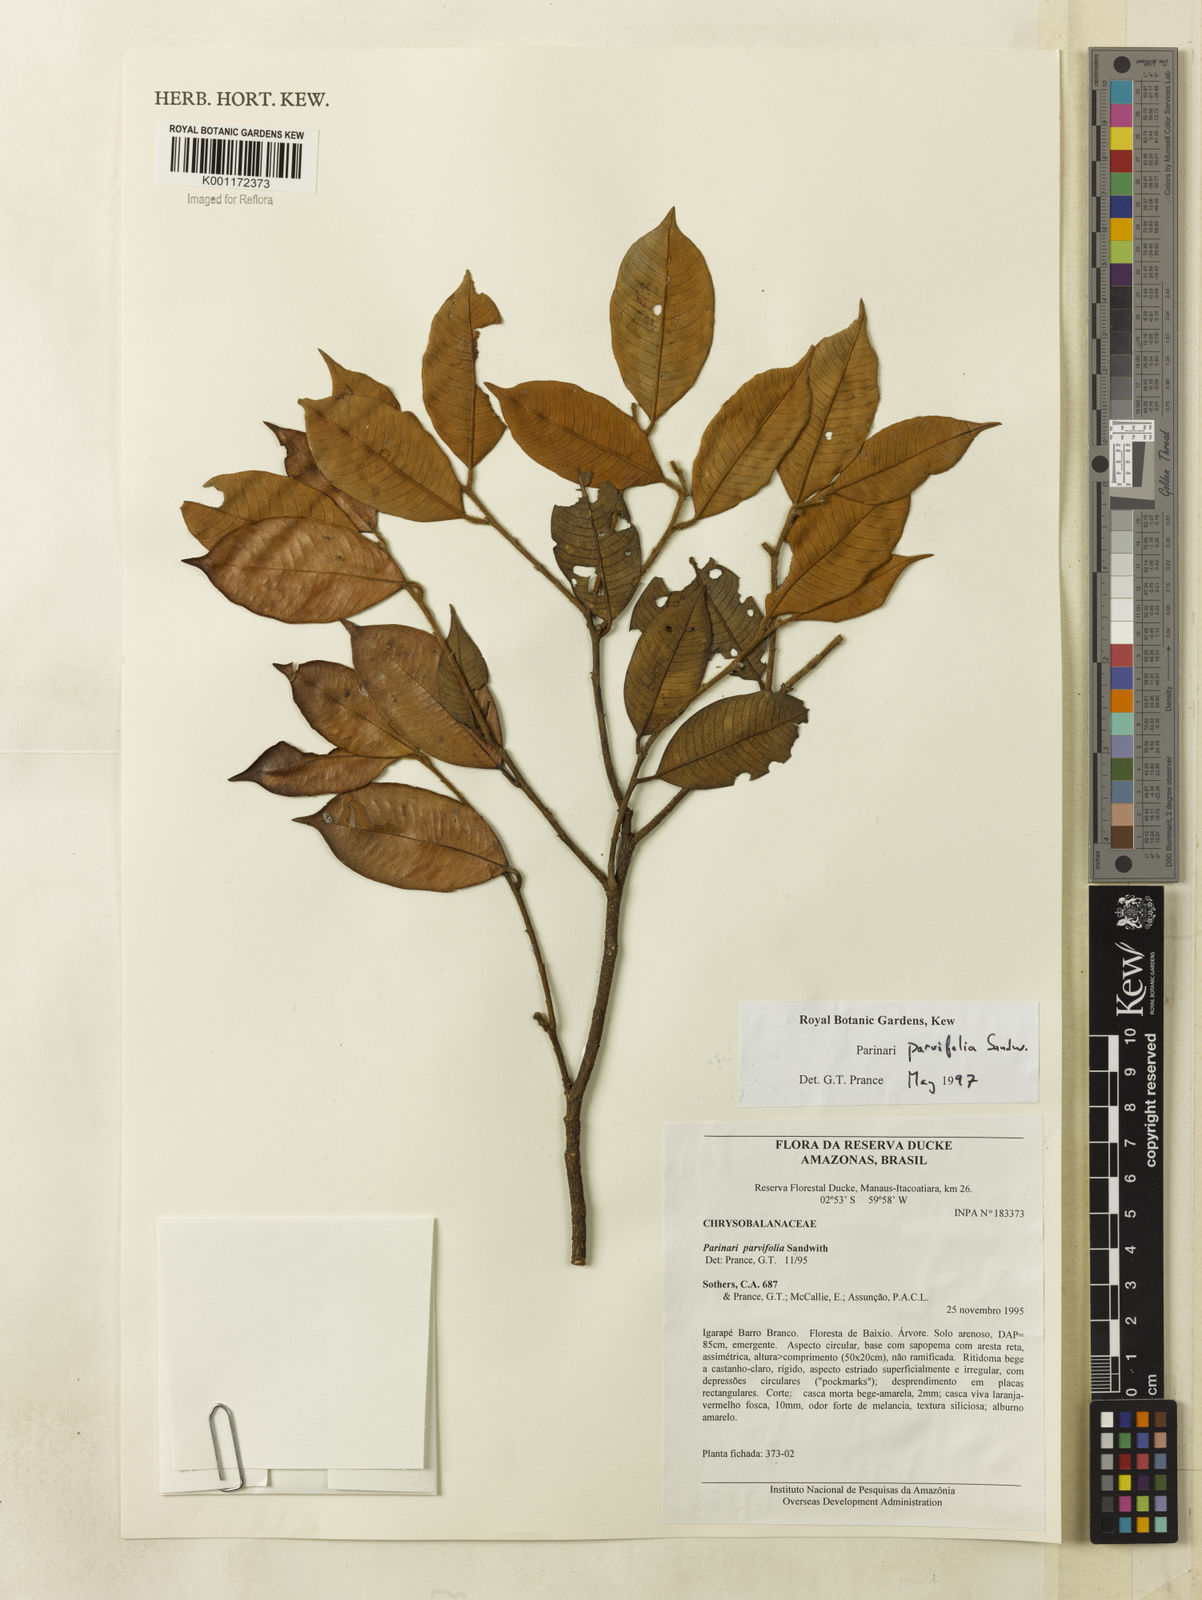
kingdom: Plantae
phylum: Tracheophyta
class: Magnoliopsida
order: Malpighiales
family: Chrysobalanaceae
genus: Parinari
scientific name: Parinari parvifolia
